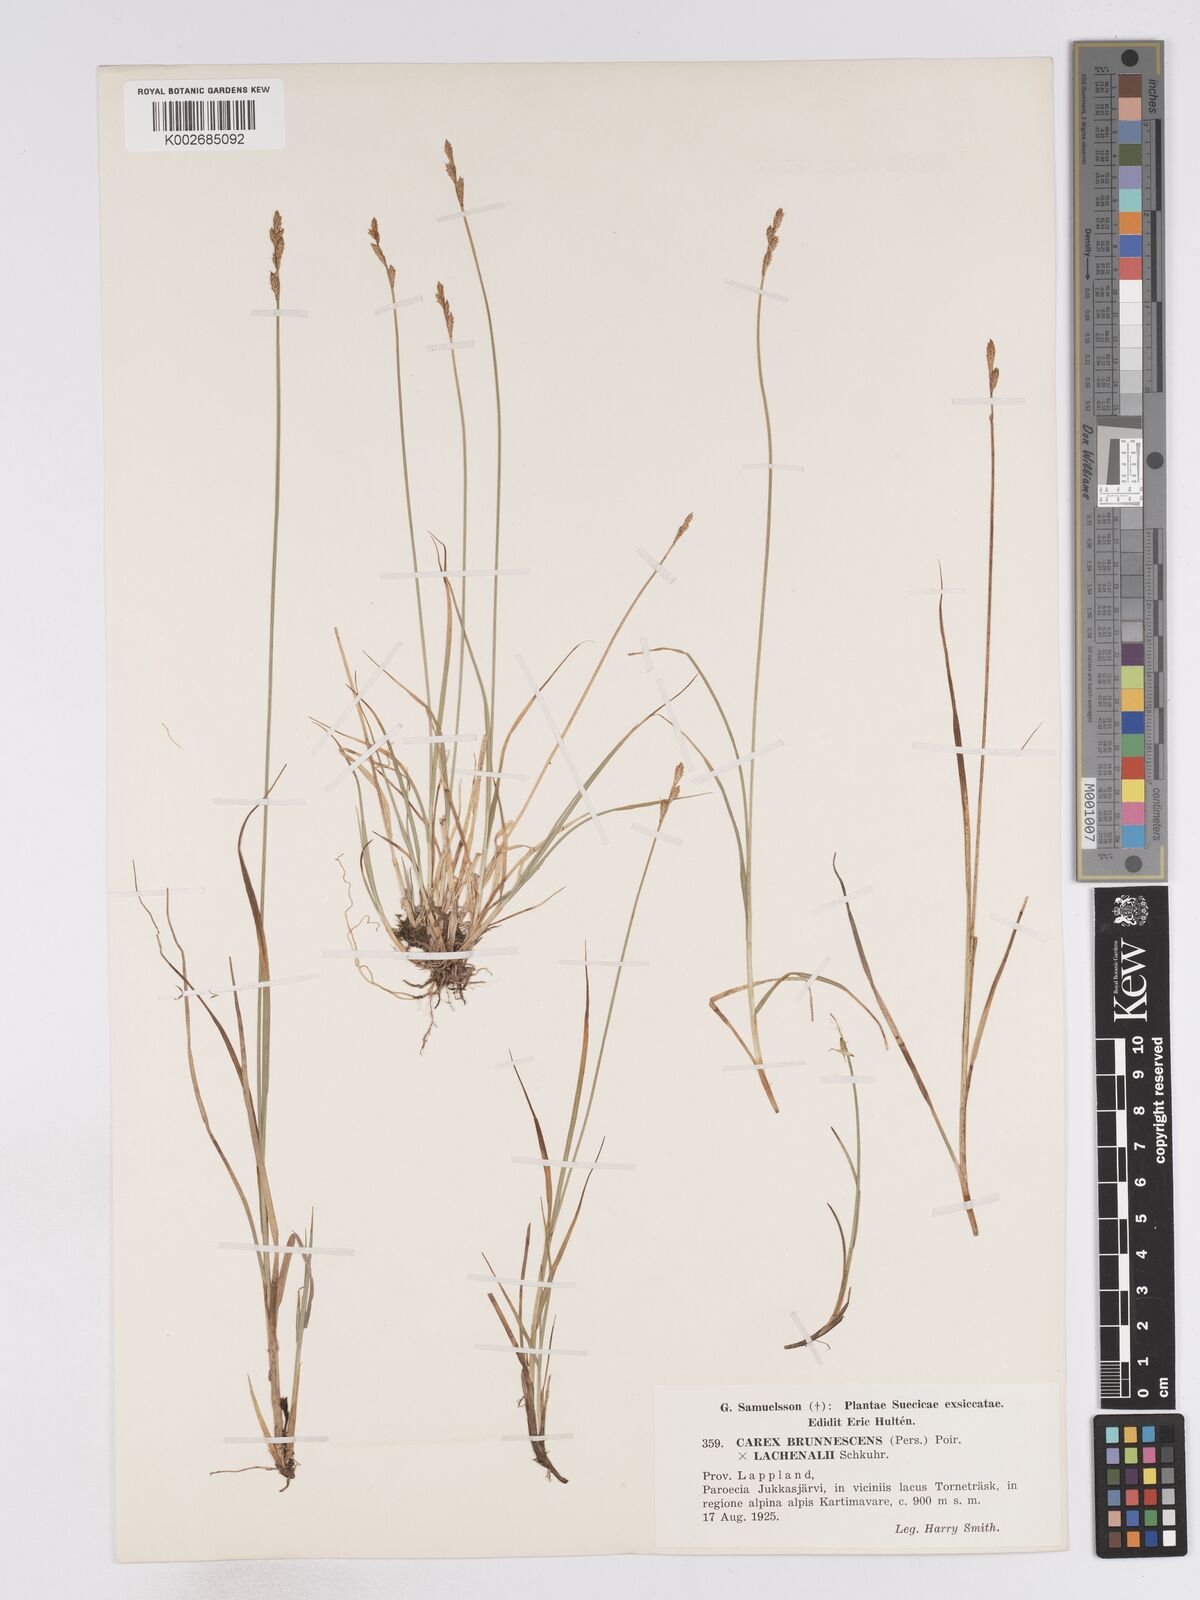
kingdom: Plantae
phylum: Tracheophyta
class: Liliopsida
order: Poales
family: Cyperaceae
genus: Carex
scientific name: Carex brunnescens
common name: Brown sedge
